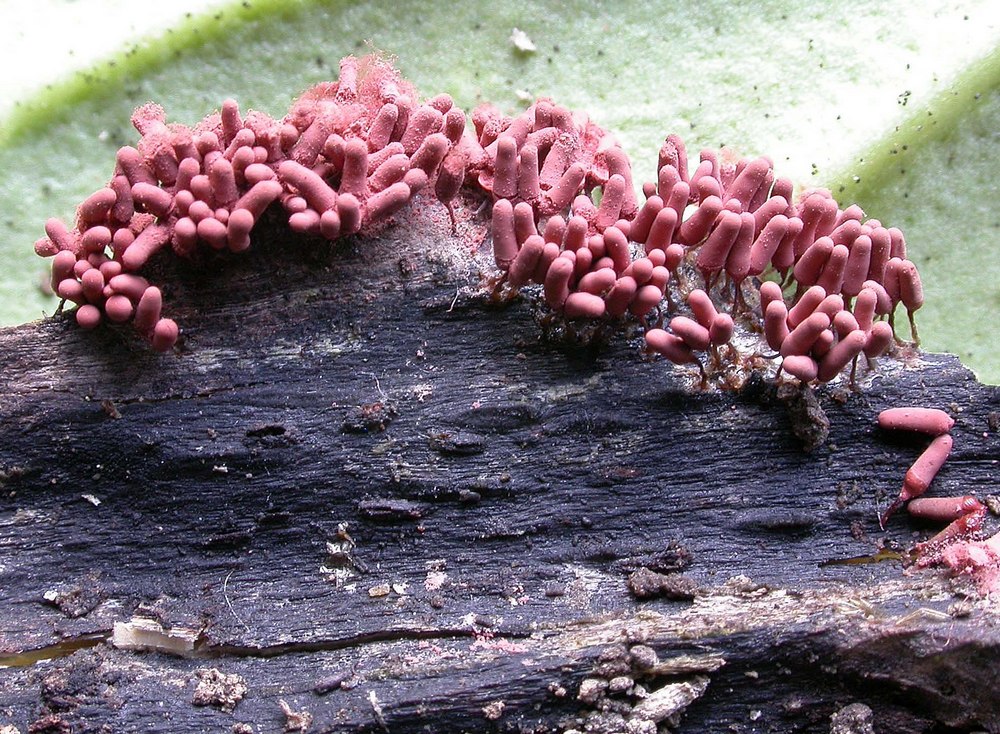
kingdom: Protozoa
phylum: Mycetozoa
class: Myxomycetes
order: Trichiales
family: Arcyriaceae
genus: Arcyria
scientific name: Arcyria incarnata
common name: rosa skålsvøb
